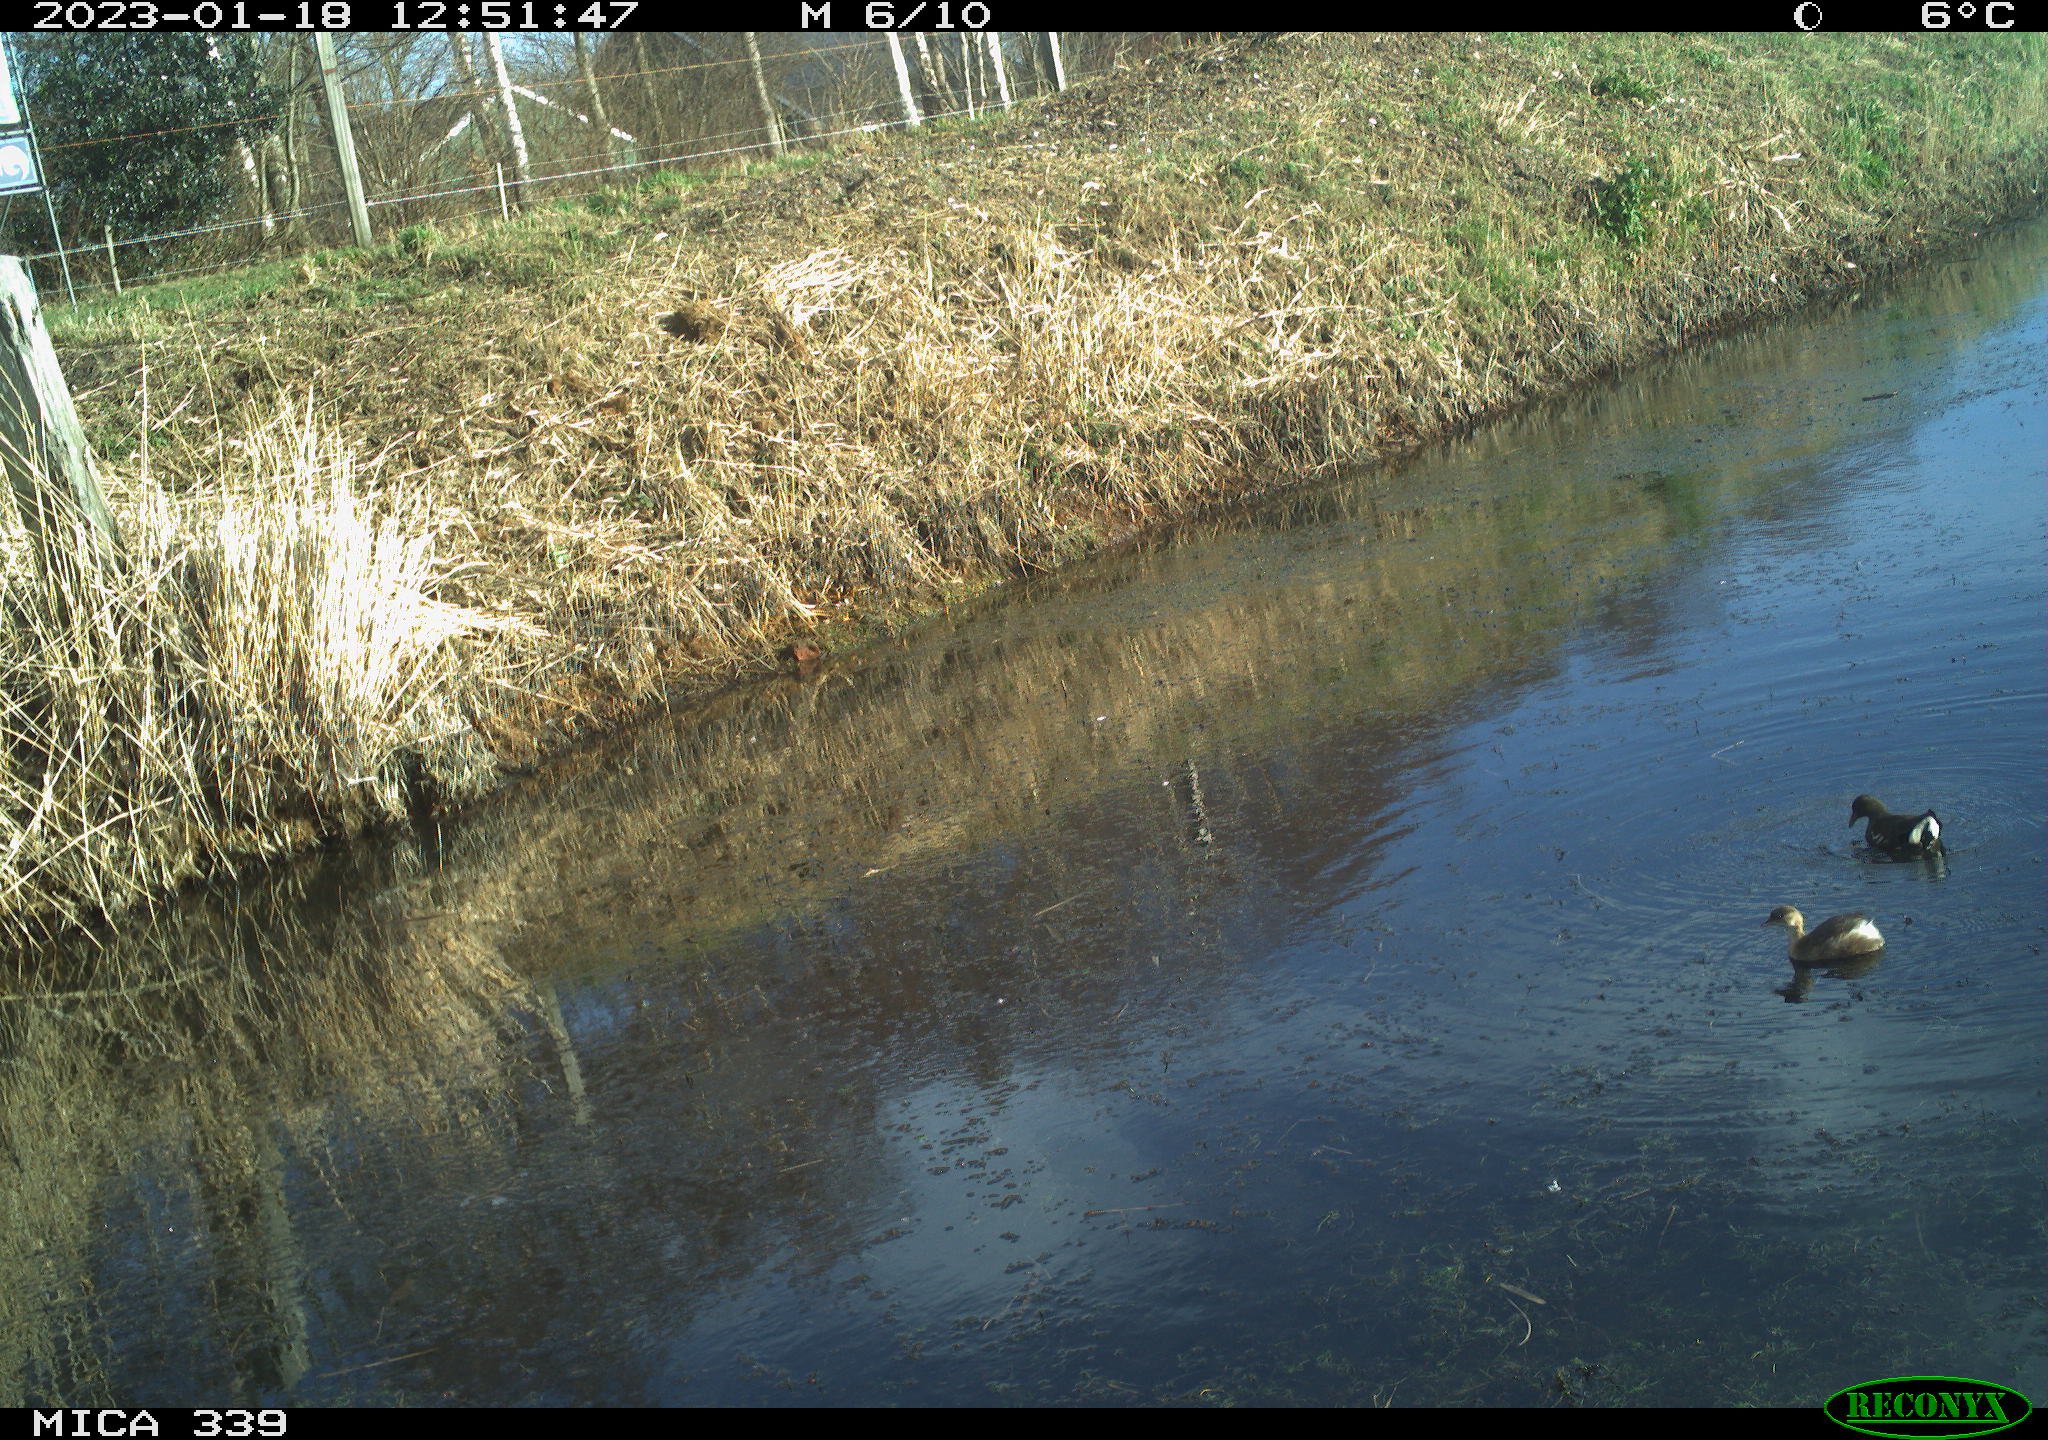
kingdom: Animalia
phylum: Chordata
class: Aves
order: Podicipediformes
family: Podicipedidae
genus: Tachybaptus
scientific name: Tachybaptus ruficollis
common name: Little grebe
